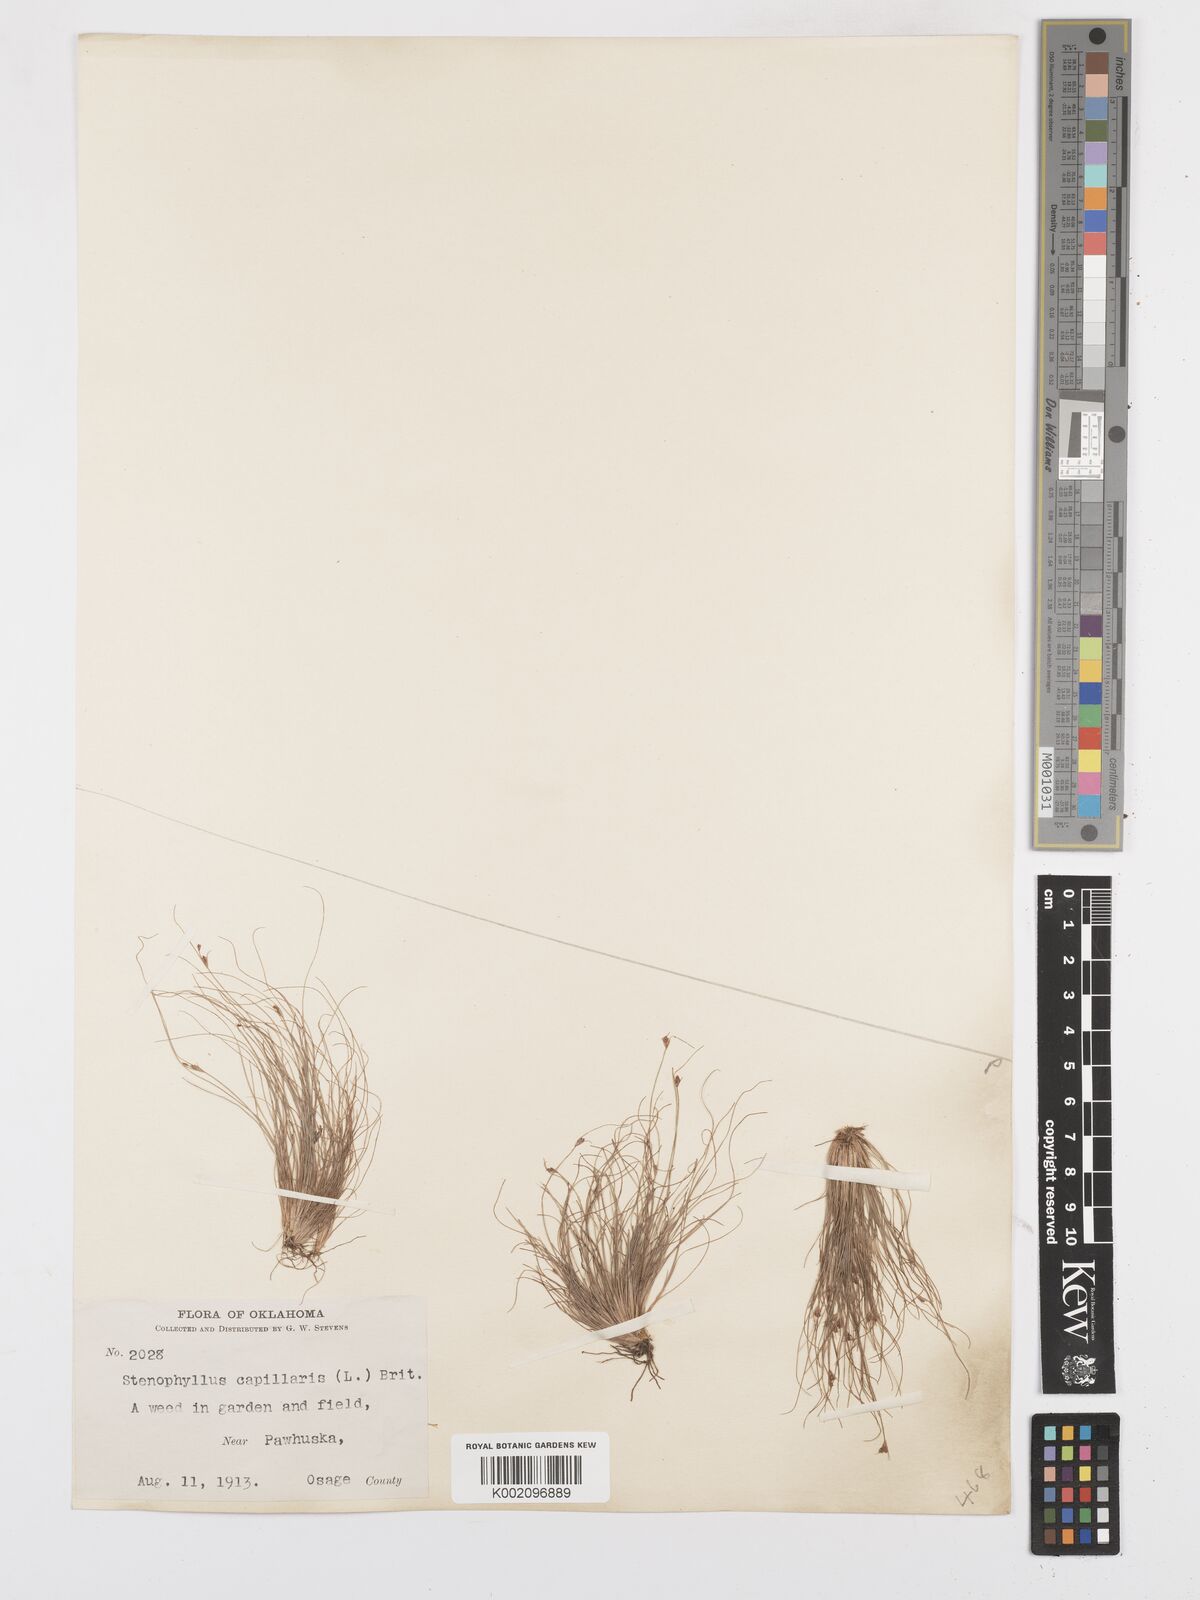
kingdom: Plantae
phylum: Tracheophyta
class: Liliopsida
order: Poales
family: Cyperaceae
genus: Bulbostylis
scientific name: Bulbostylis capillaris
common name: Densetuft hairsedge
